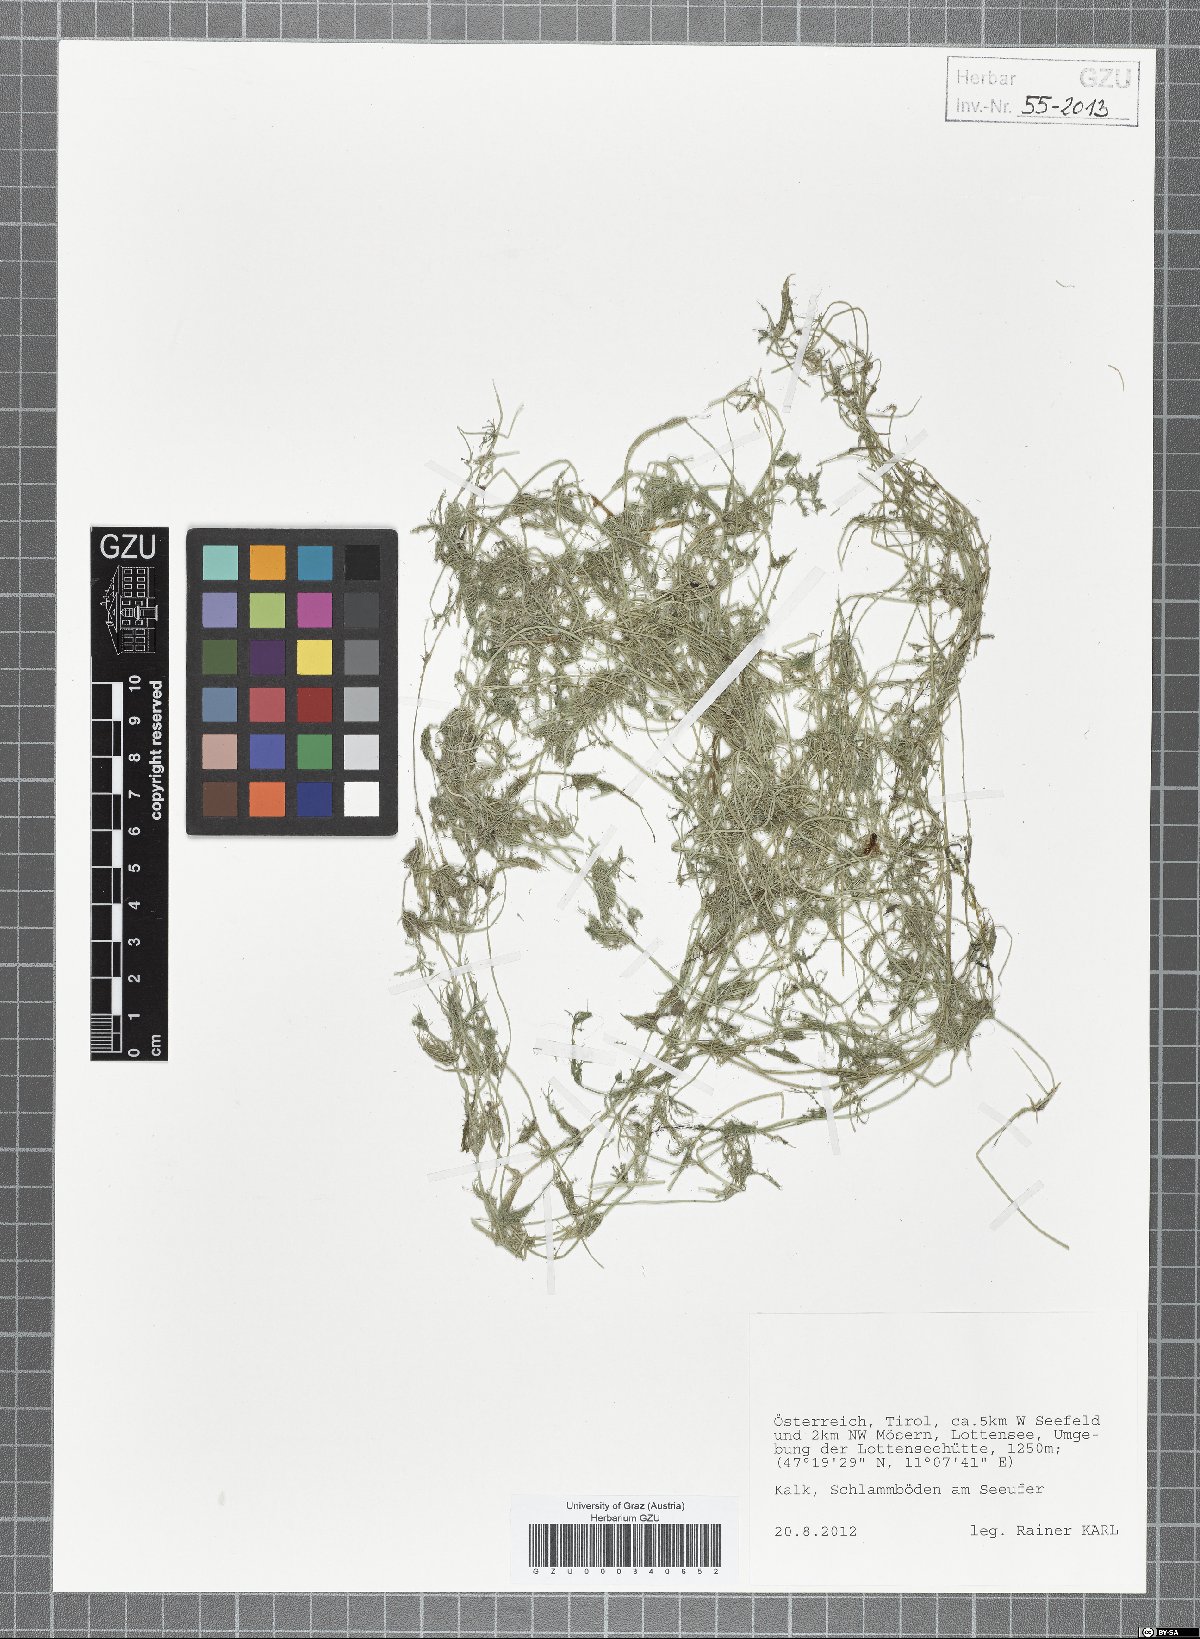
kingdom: Plantae
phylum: Charophyta
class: Charophyceae
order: Charales
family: Characeae
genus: Chara
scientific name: Chara
